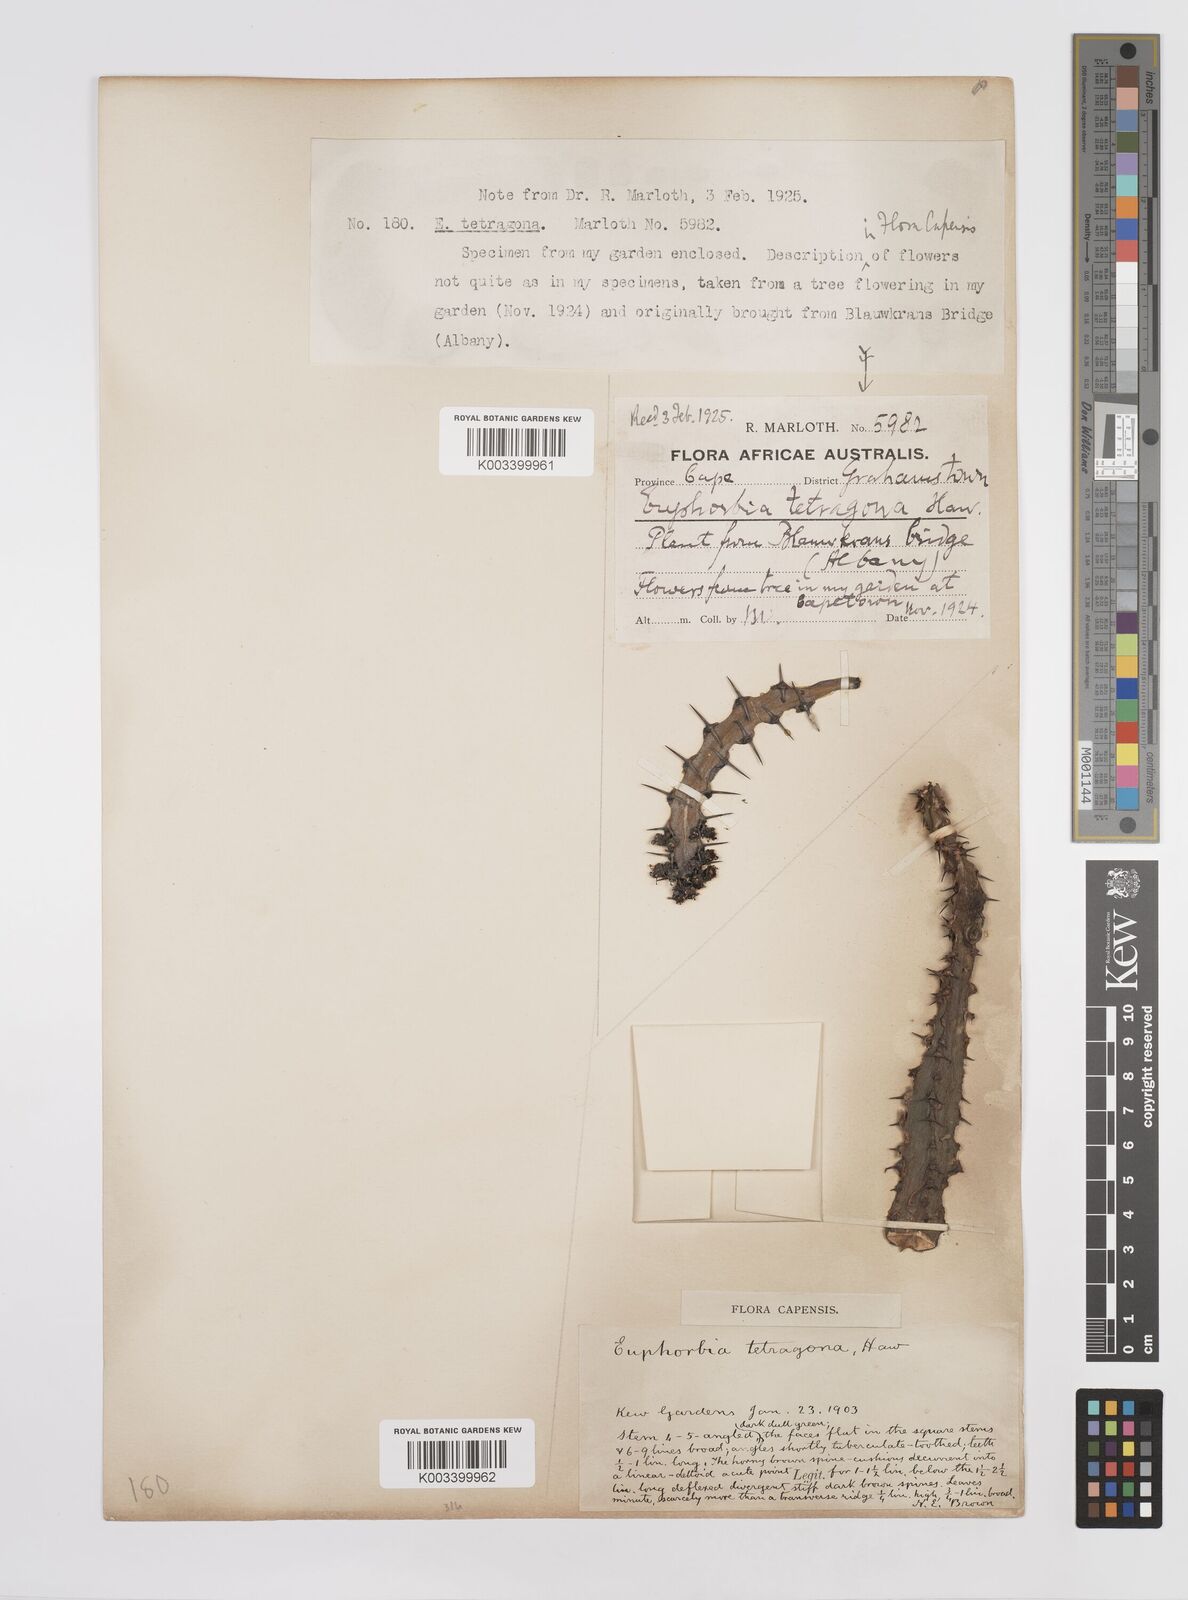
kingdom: Plantae
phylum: Tracheophyta
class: Magnoliopsida
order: Malpighiales
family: Euphorbiaceae
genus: Euphorbia
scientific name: Euphorbia tetragona
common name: Honey euphorbia
